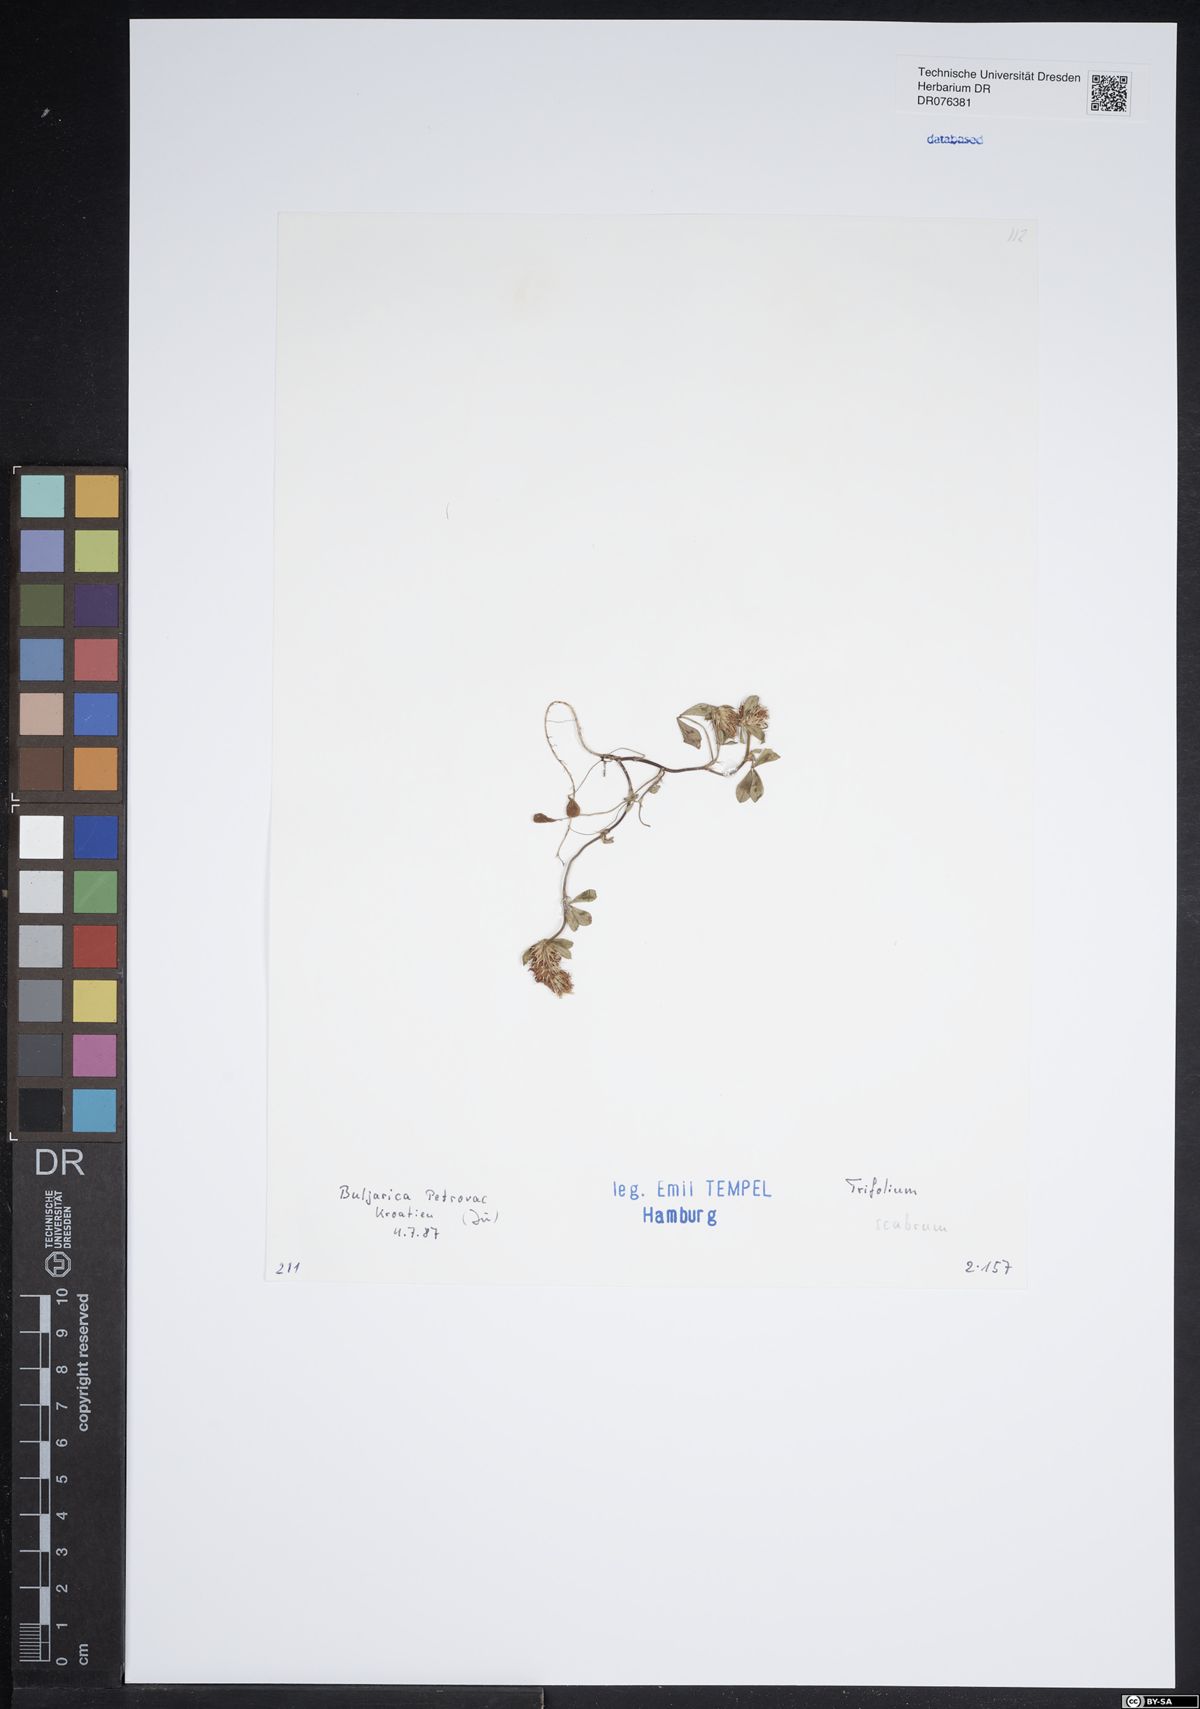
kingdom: Plantae
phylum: Tracheophyta
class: Magnoliopsida
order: Fabales
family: Fabaceae
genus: Trifolium
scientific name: Trifolium scabrum
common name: Rough clover
